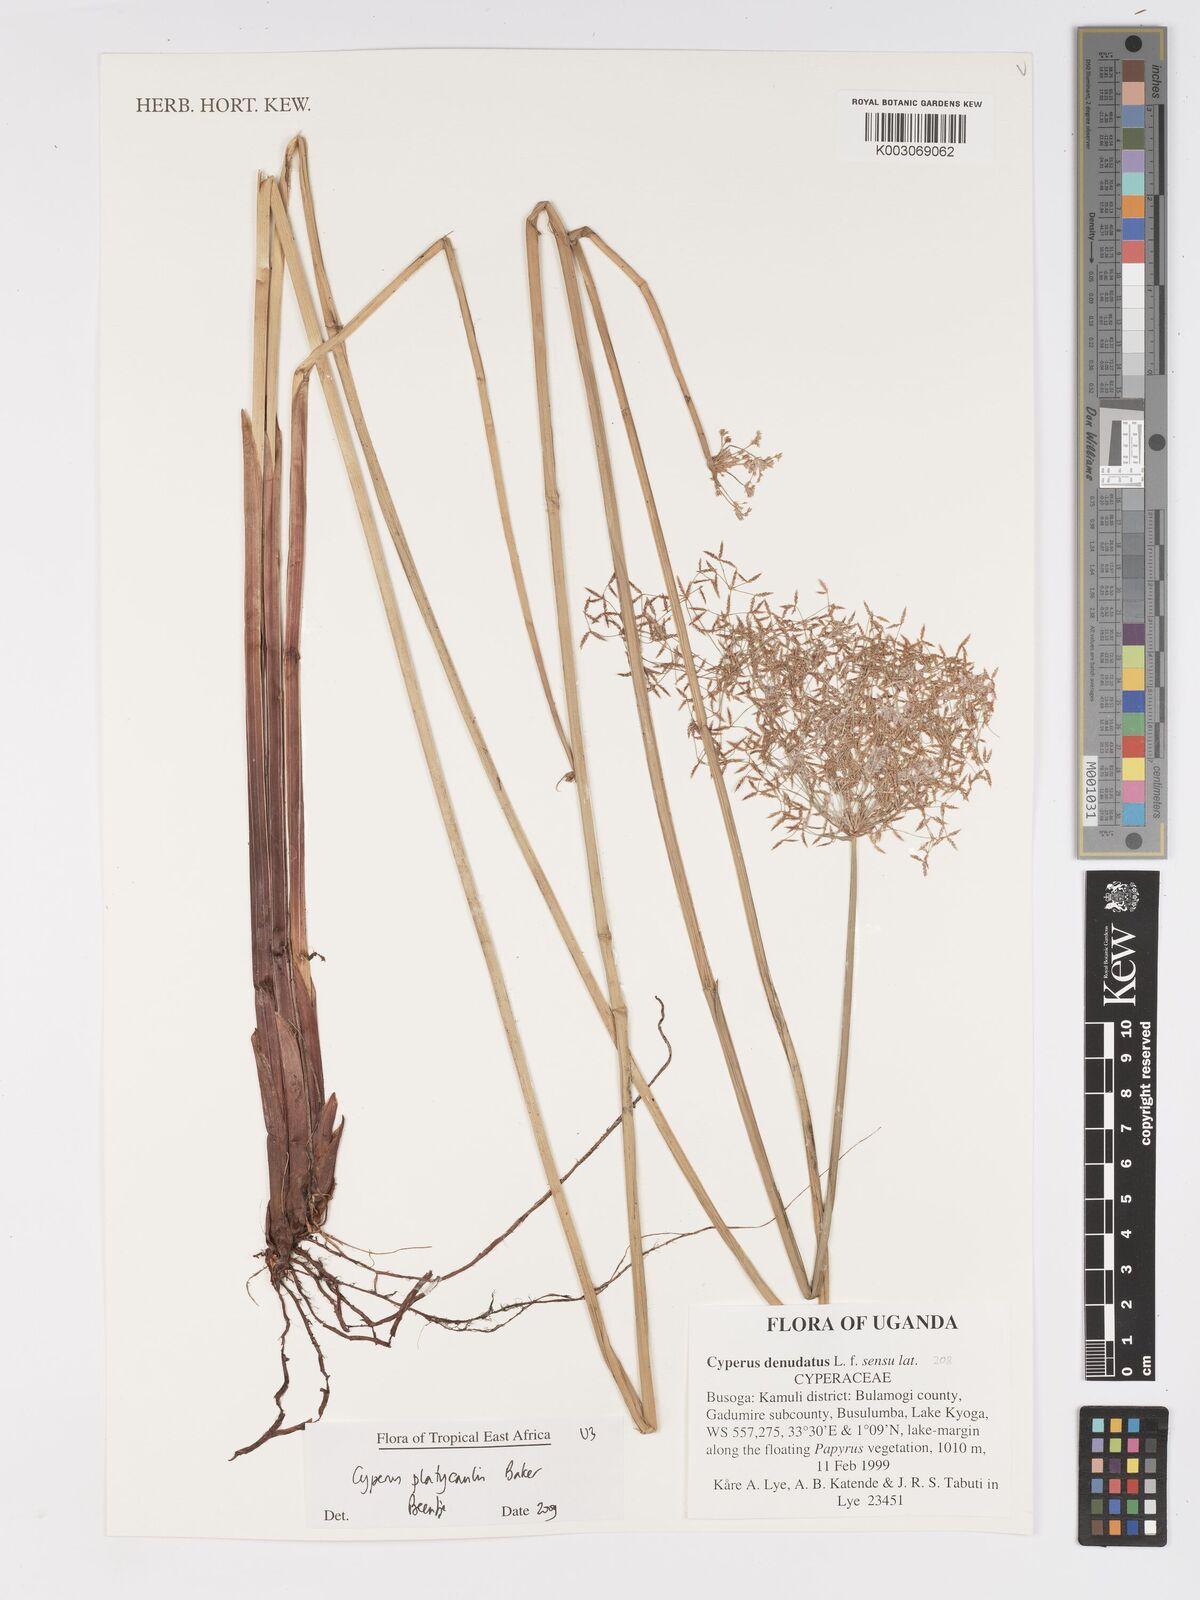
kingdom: Plantae
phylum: Tracheophyta
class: Liliopsida
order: Poales
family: Cyperaceae
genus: Cyperus
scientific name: Cyperus platycaulis
